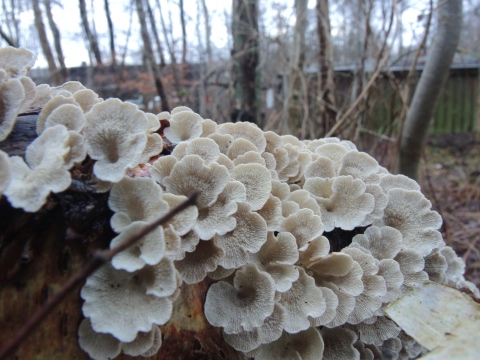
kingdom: Fungi
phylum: Basidiomycota
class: Agaricomycetes
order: Amylocorticiales
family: Amylocorticiaceae
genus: Plicaturopsis
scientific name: Plicaturopsis crispa
